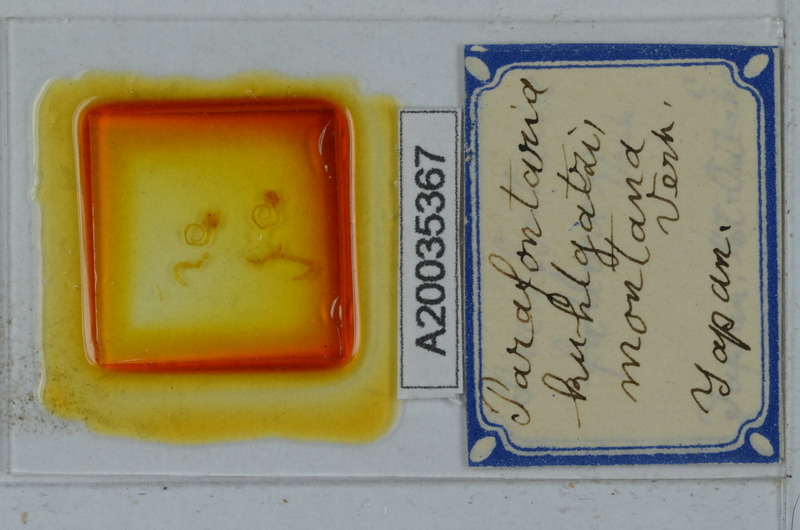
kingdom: Animalia
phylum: Arthropoda
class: Diplopoda
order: Polydesmida
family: Xystodesmidae
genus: Parafontaria
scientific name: Parafontaria
